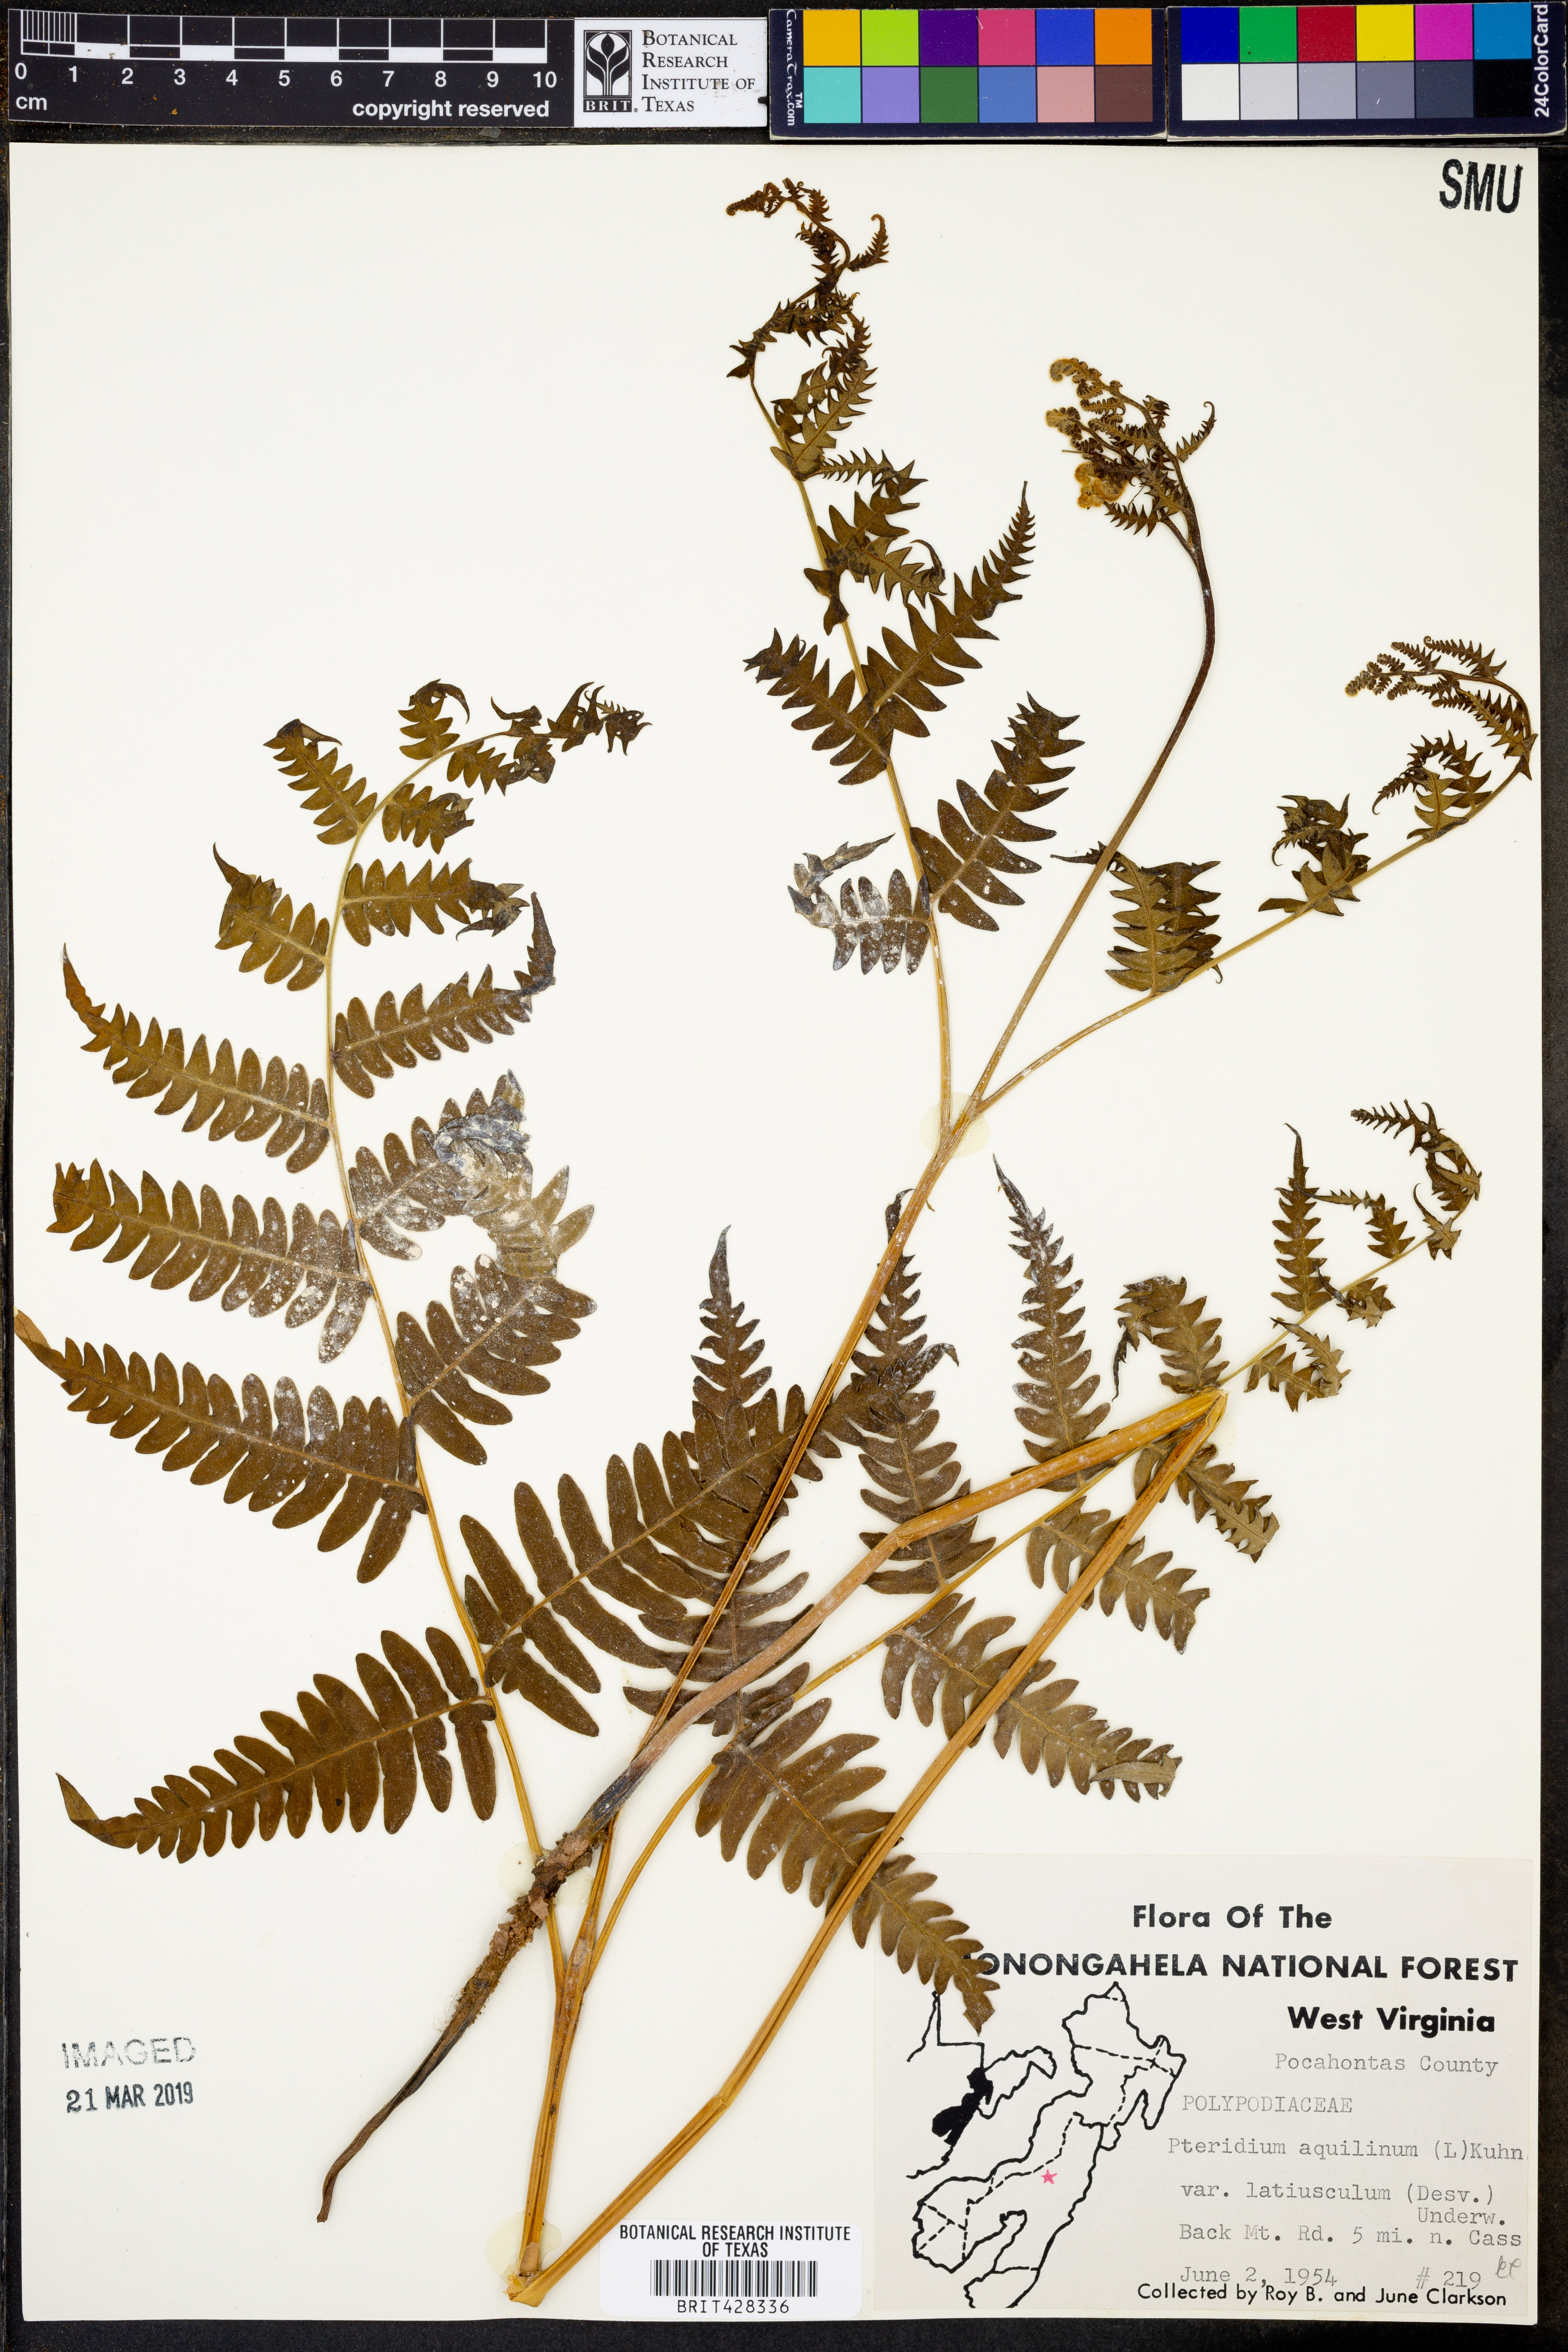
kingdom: Plantae
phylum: Tracheophyta
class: Polypodiopsida
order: Polypodiales
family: Dennstaedtiaceae
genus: Pteridium
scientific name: Pteridium aquilinum
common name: Bracken
